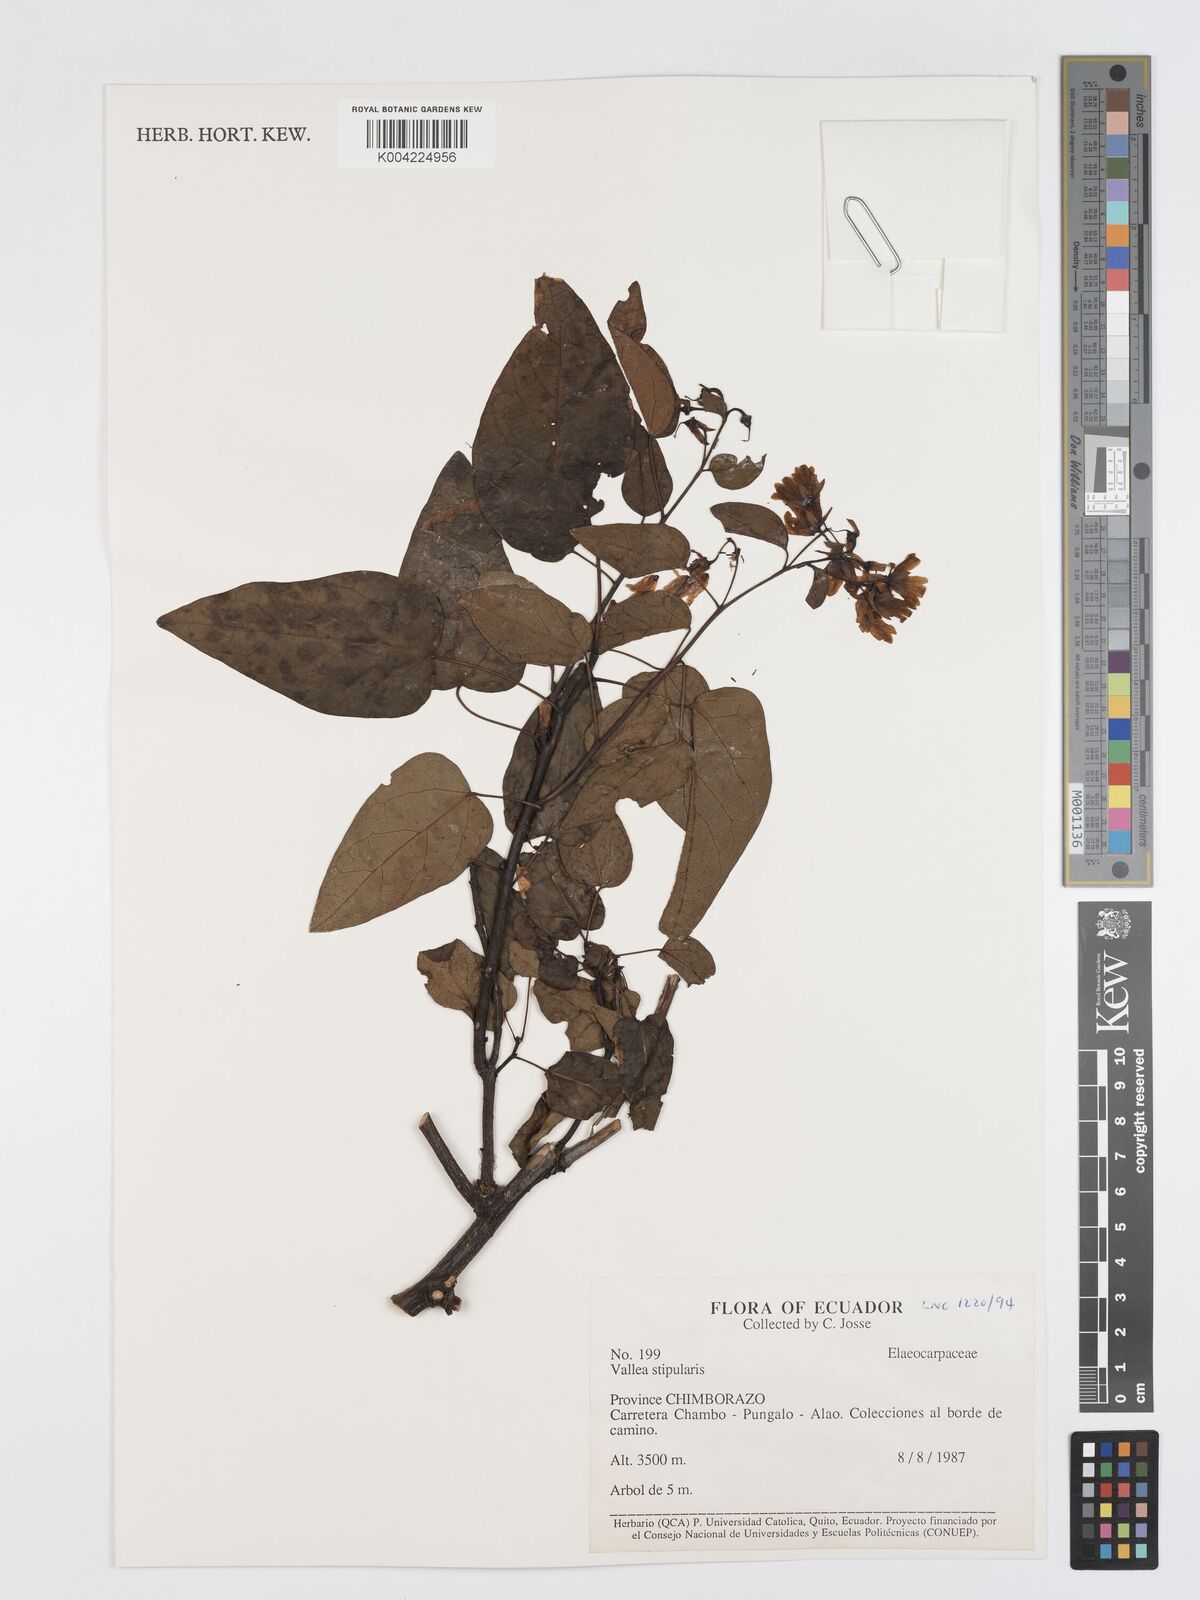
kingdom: Plantae
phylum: Tracheophyta
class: Magnoliopsida
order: Oxalidales
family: Elaeocarpaceae
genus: Vallea
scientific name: Vallea stipularis
